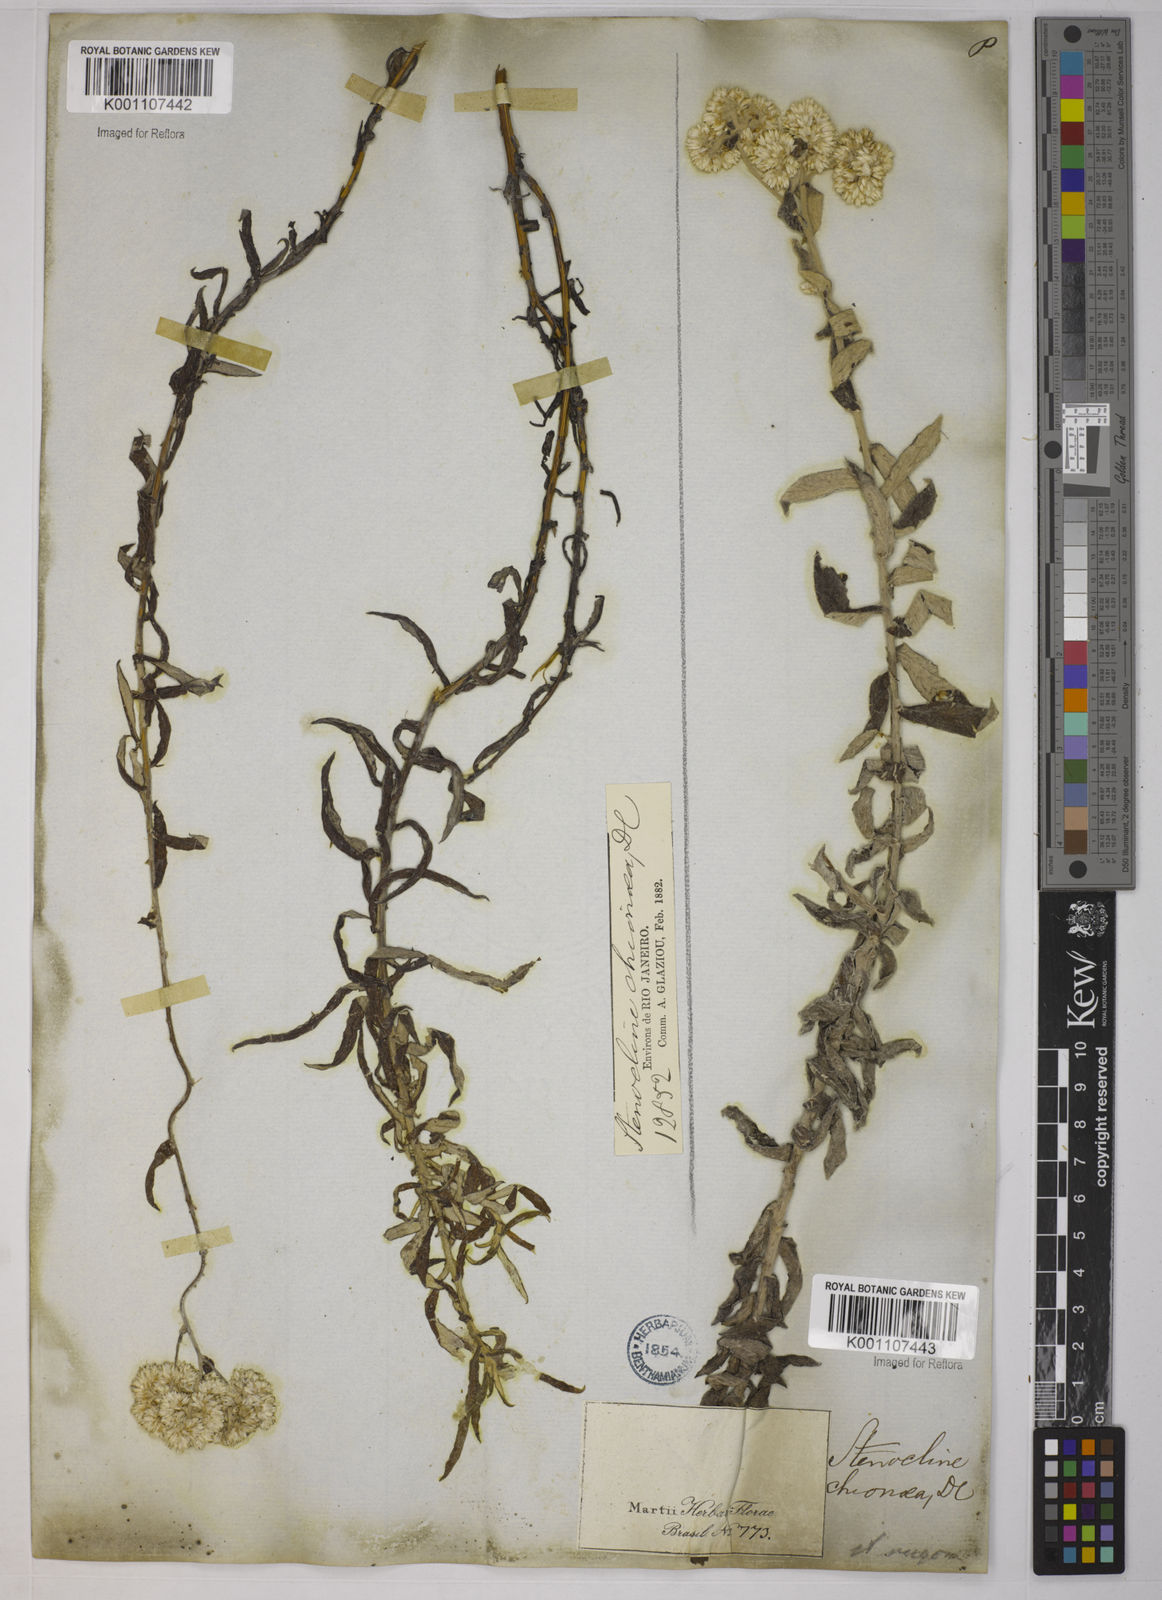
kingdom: Plantae
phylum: Tracheophyta
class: Magnoliopsida
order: Asterales
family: Asteraceae
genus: Achyrocline
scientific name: Achyrocline chionaea
